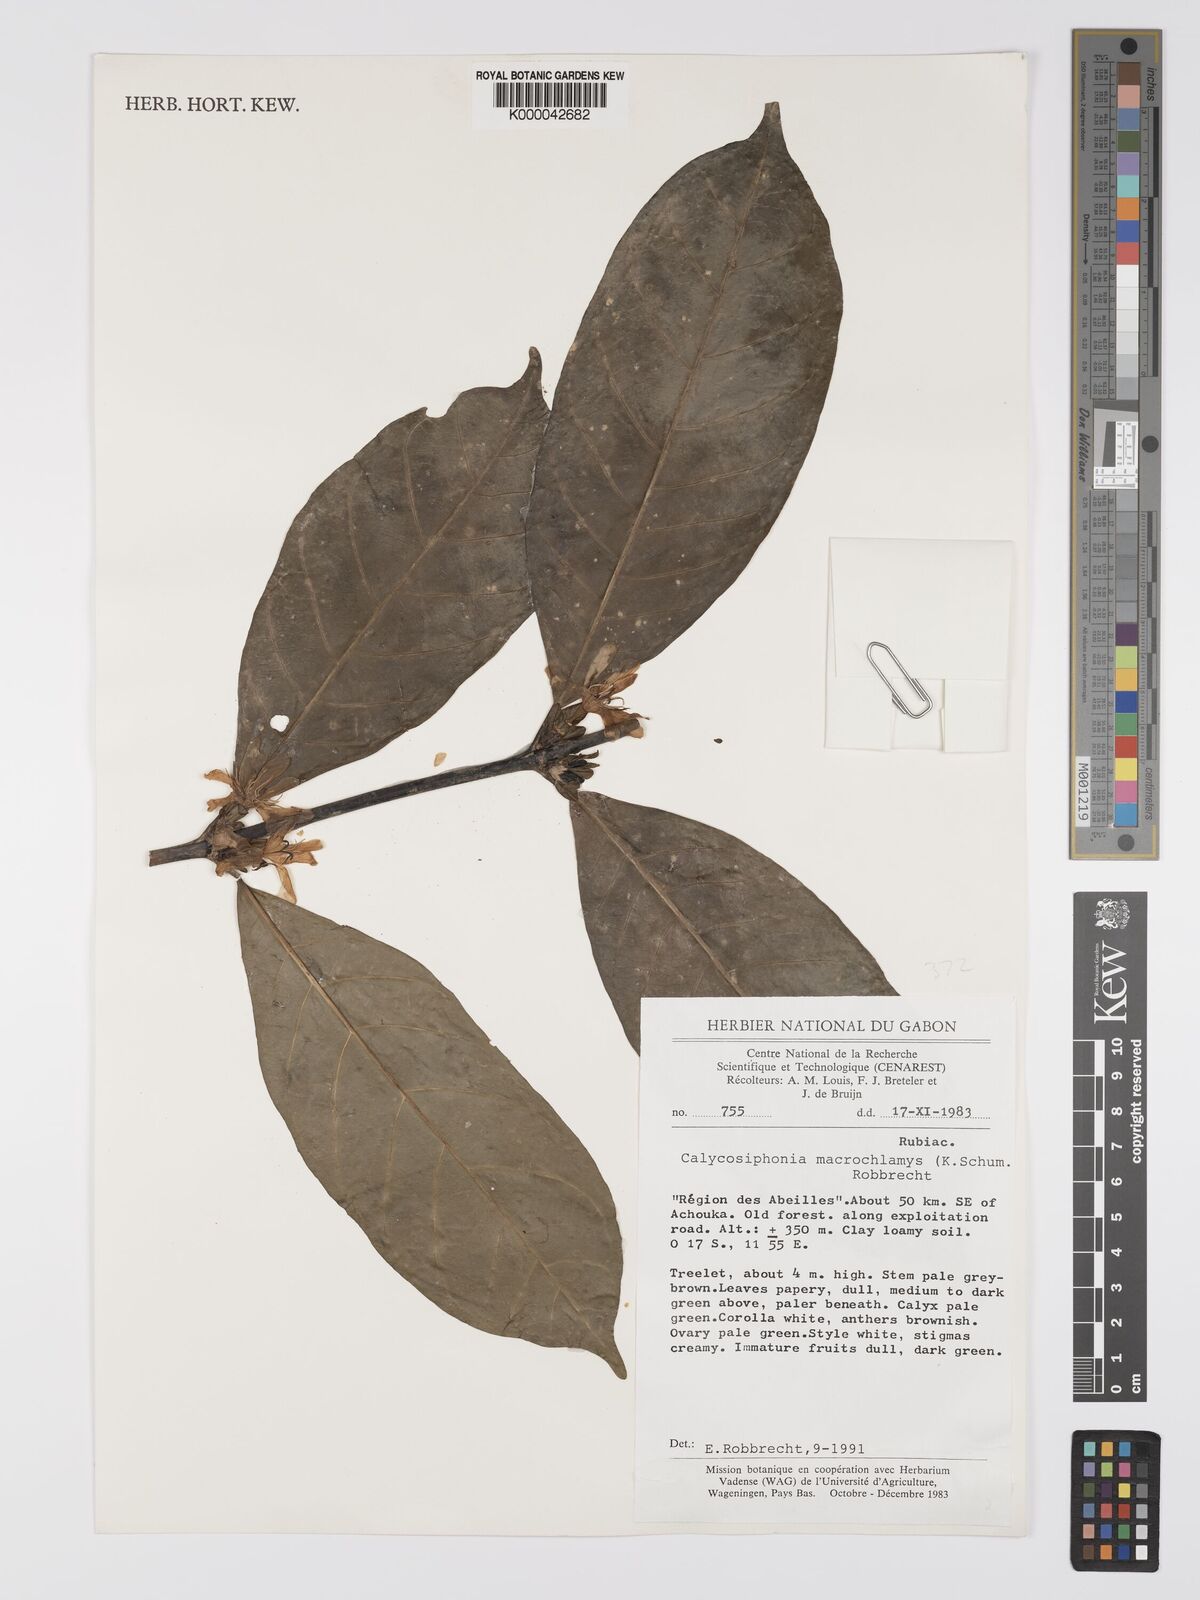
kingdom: Plantae
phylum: Tracheophyta
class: Magnoliopsida
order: Gentianales
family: Rubiaceae
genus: Calycosiphonia
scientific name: Calycosiphonia
